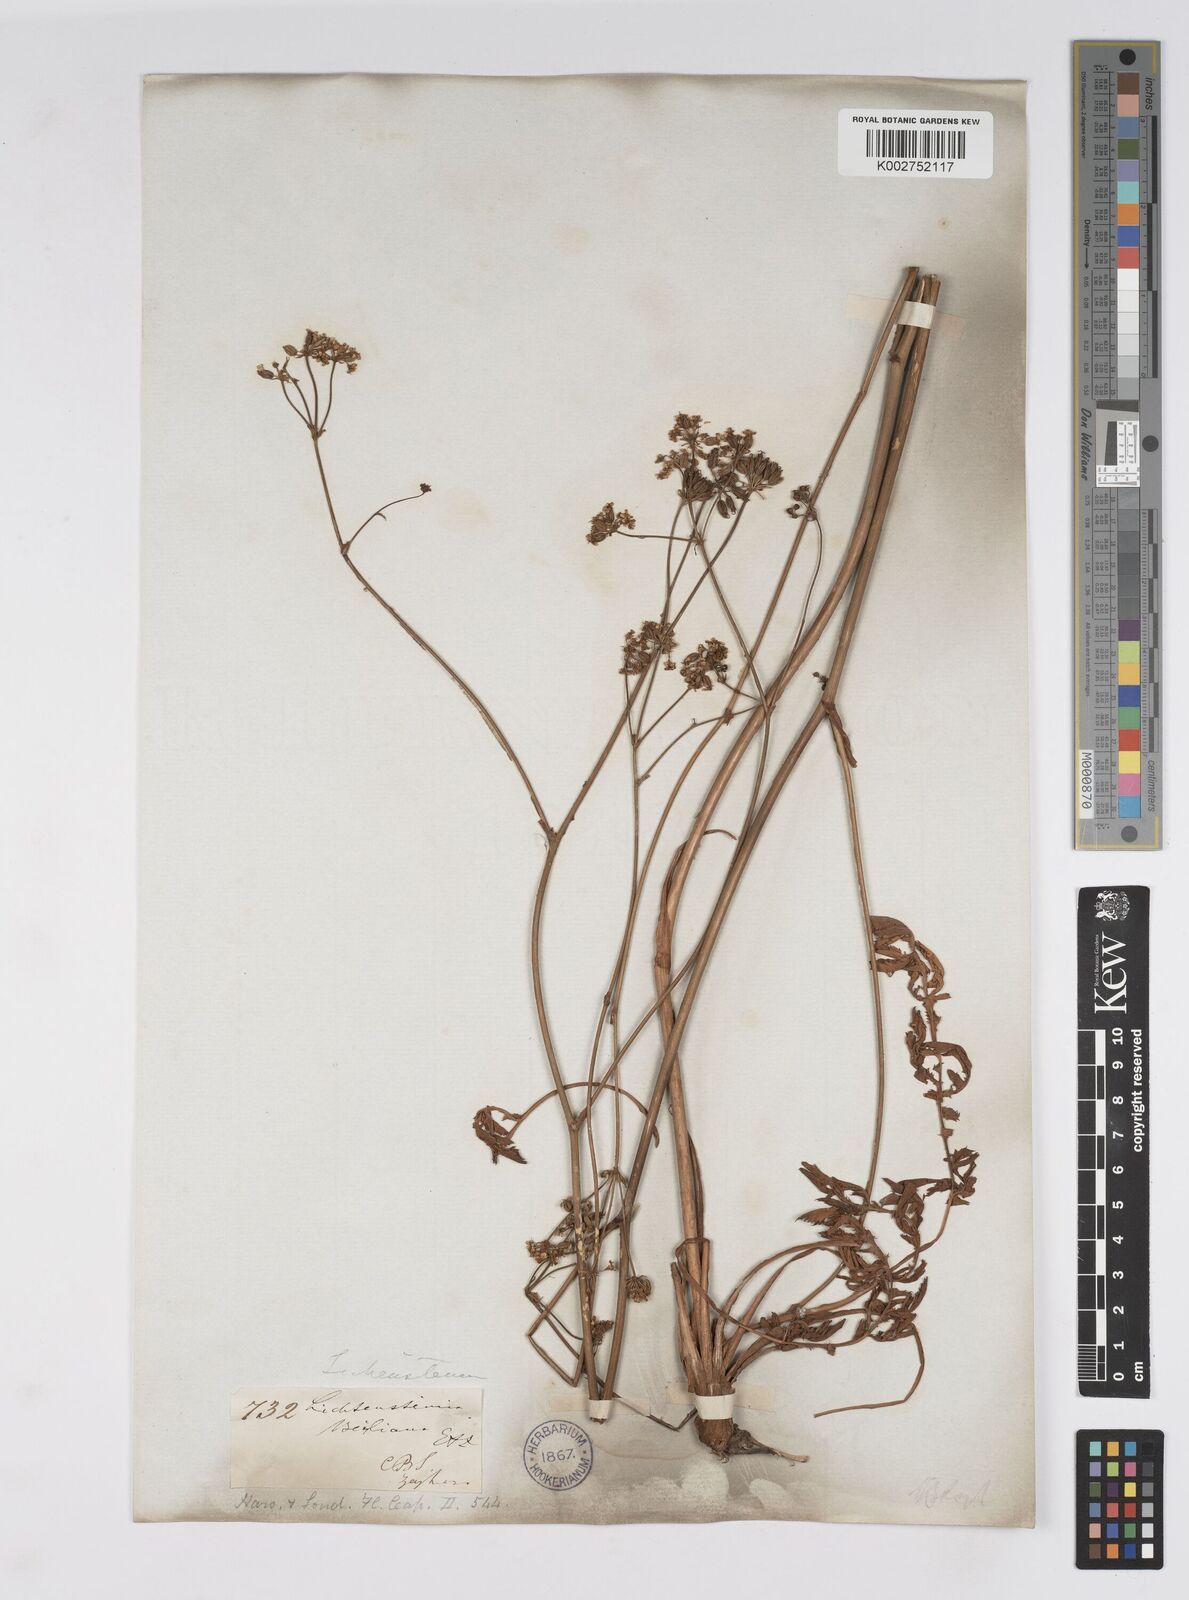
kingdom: Plantae
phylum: Tracheophyta
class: Magnoliopsida
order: Apiales
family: Apiaceae
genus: Lichtensteinia
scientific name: Lichtensteinia obscura
